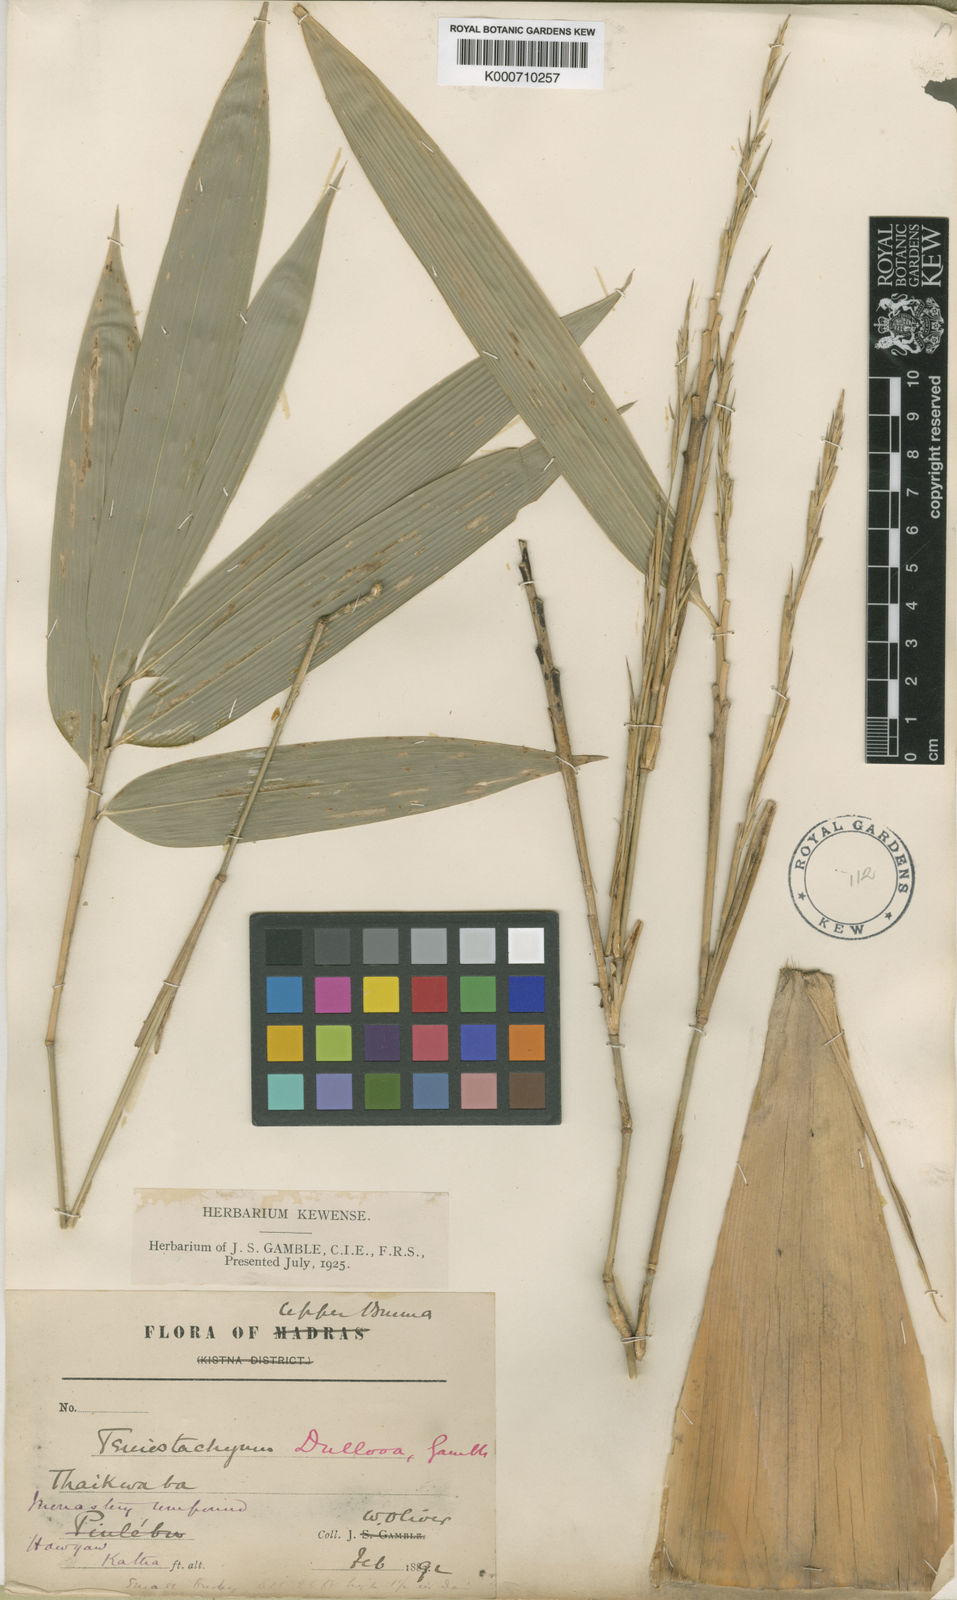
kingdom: Plantae
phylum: Tracheophyta
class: Liliopsida
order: Poales
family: Poaceae
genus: Schizostachyum
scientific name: Schizostachyum dullooa
